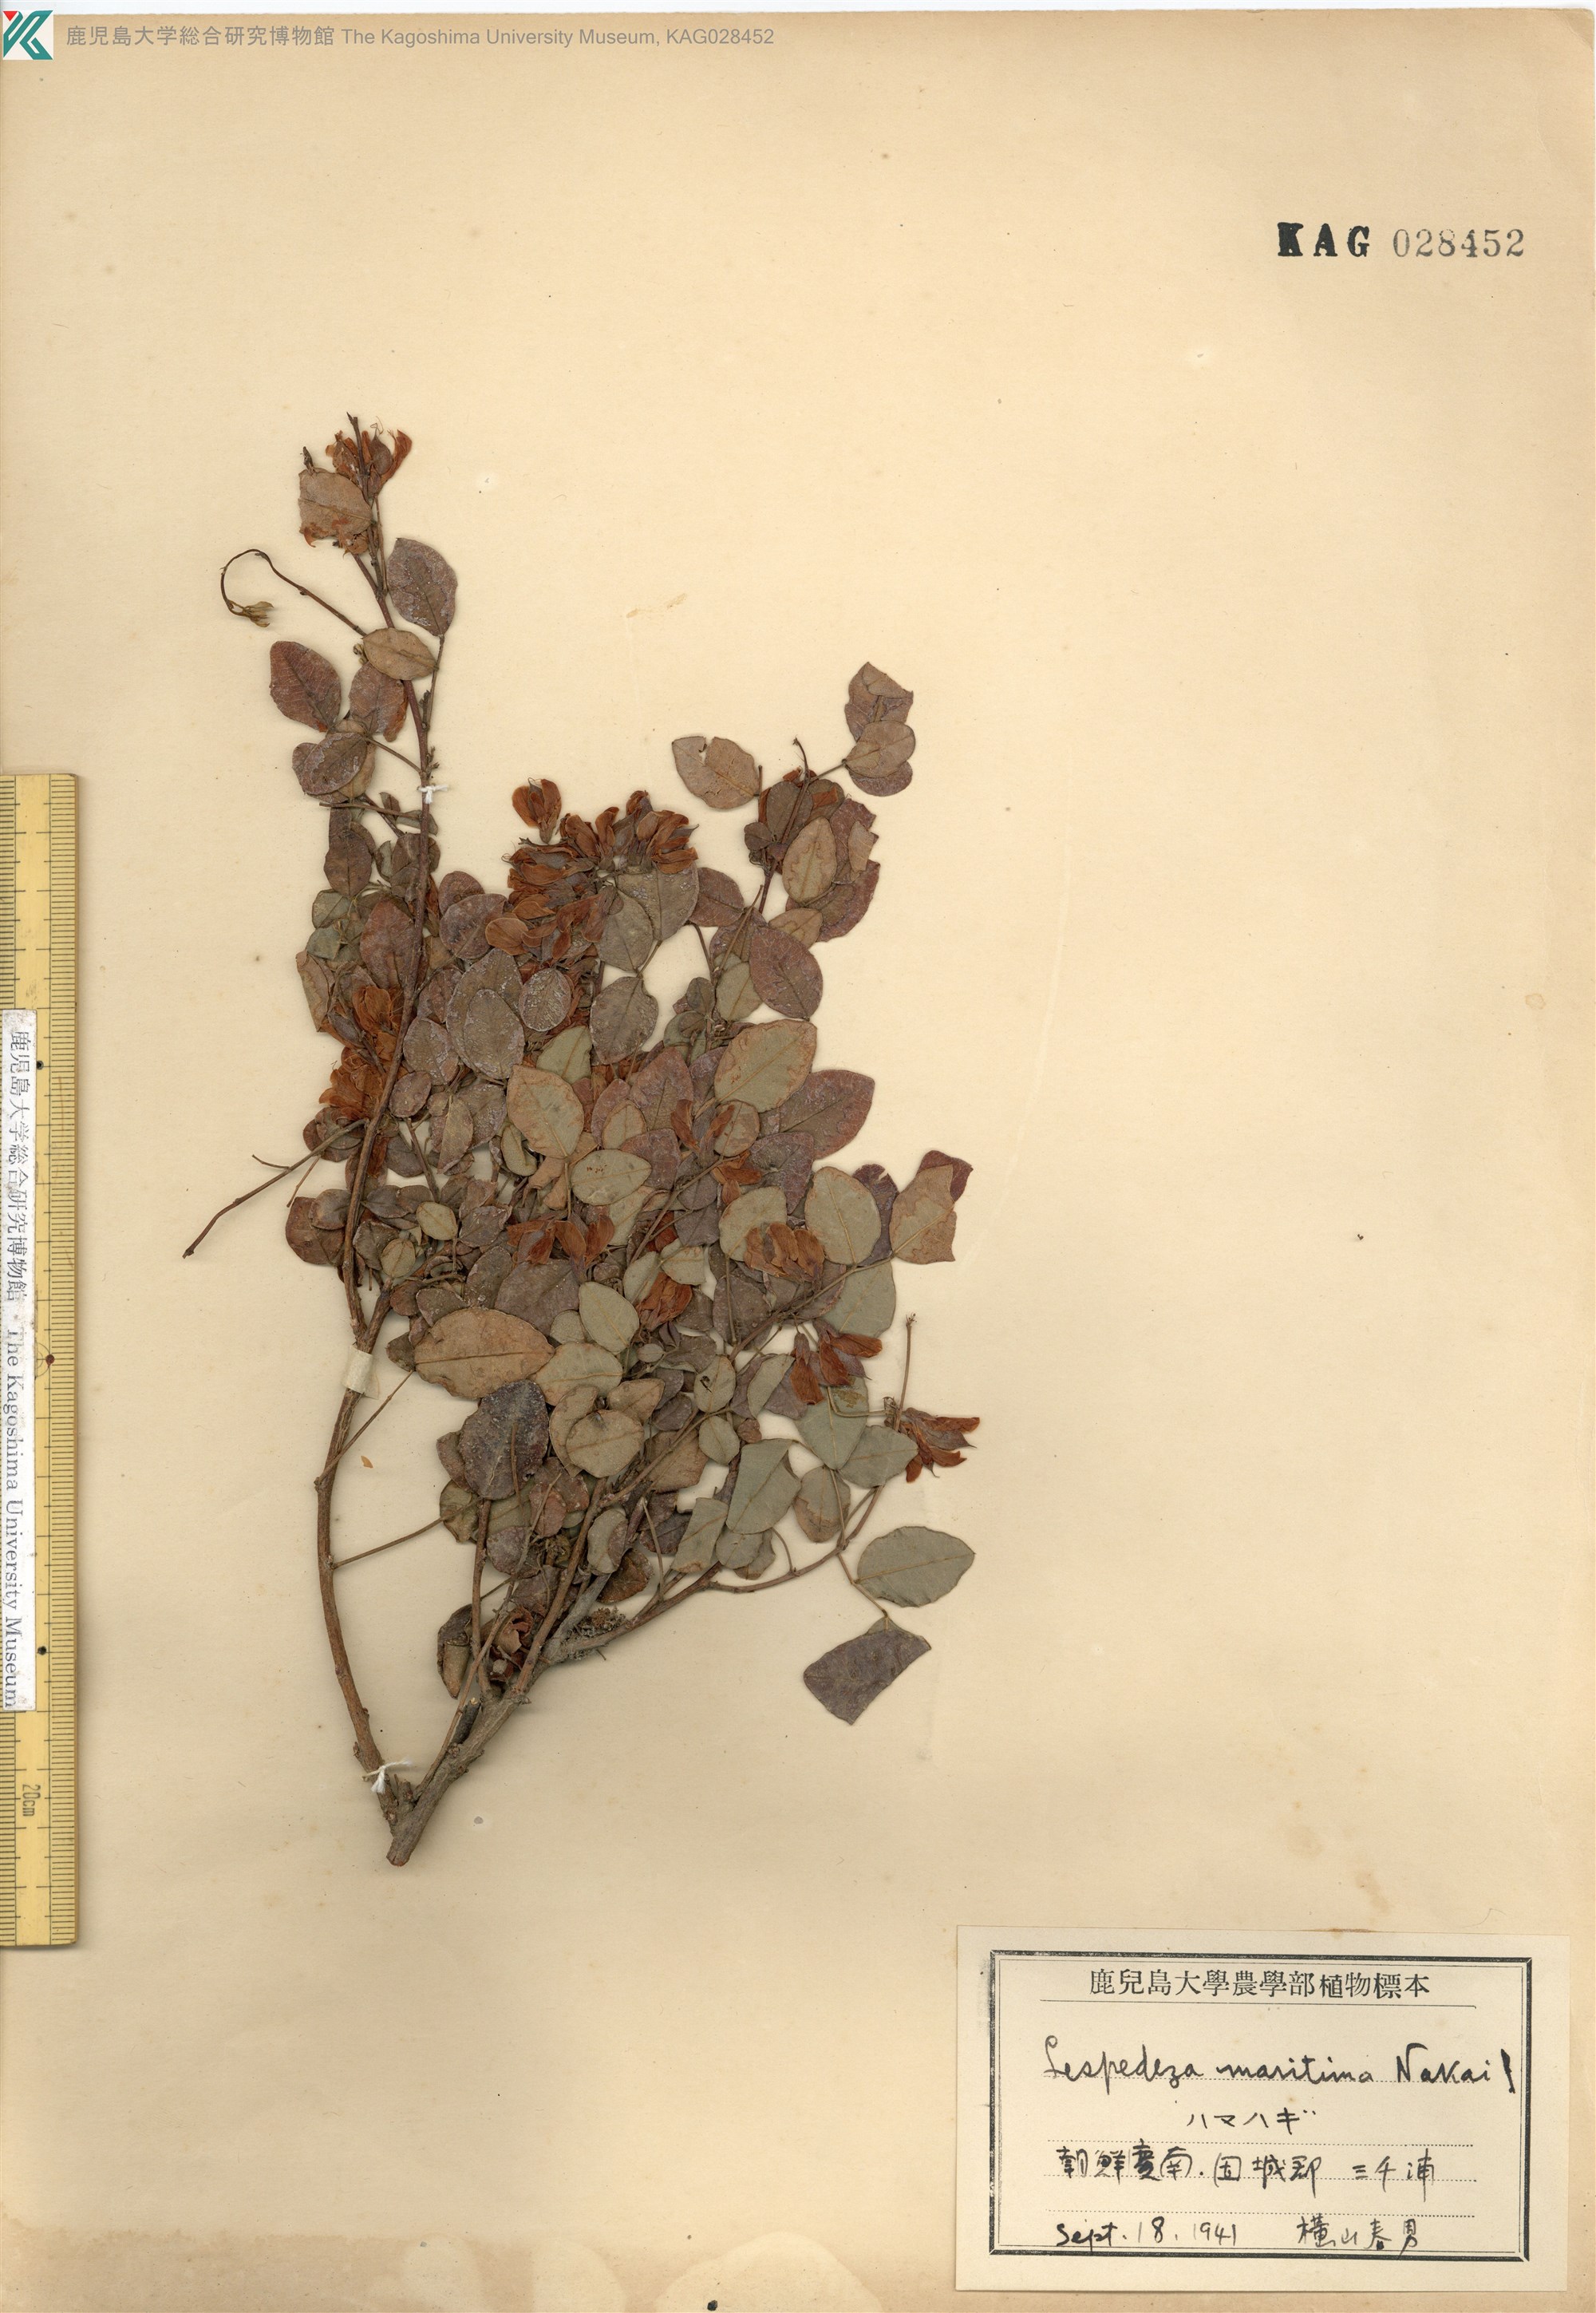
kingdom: Plantae
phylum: Tracheophyta
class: Magnoliopsida
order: Fabales
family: Fabaceae
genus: Lespedeza
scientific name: Lespedeza maritima
